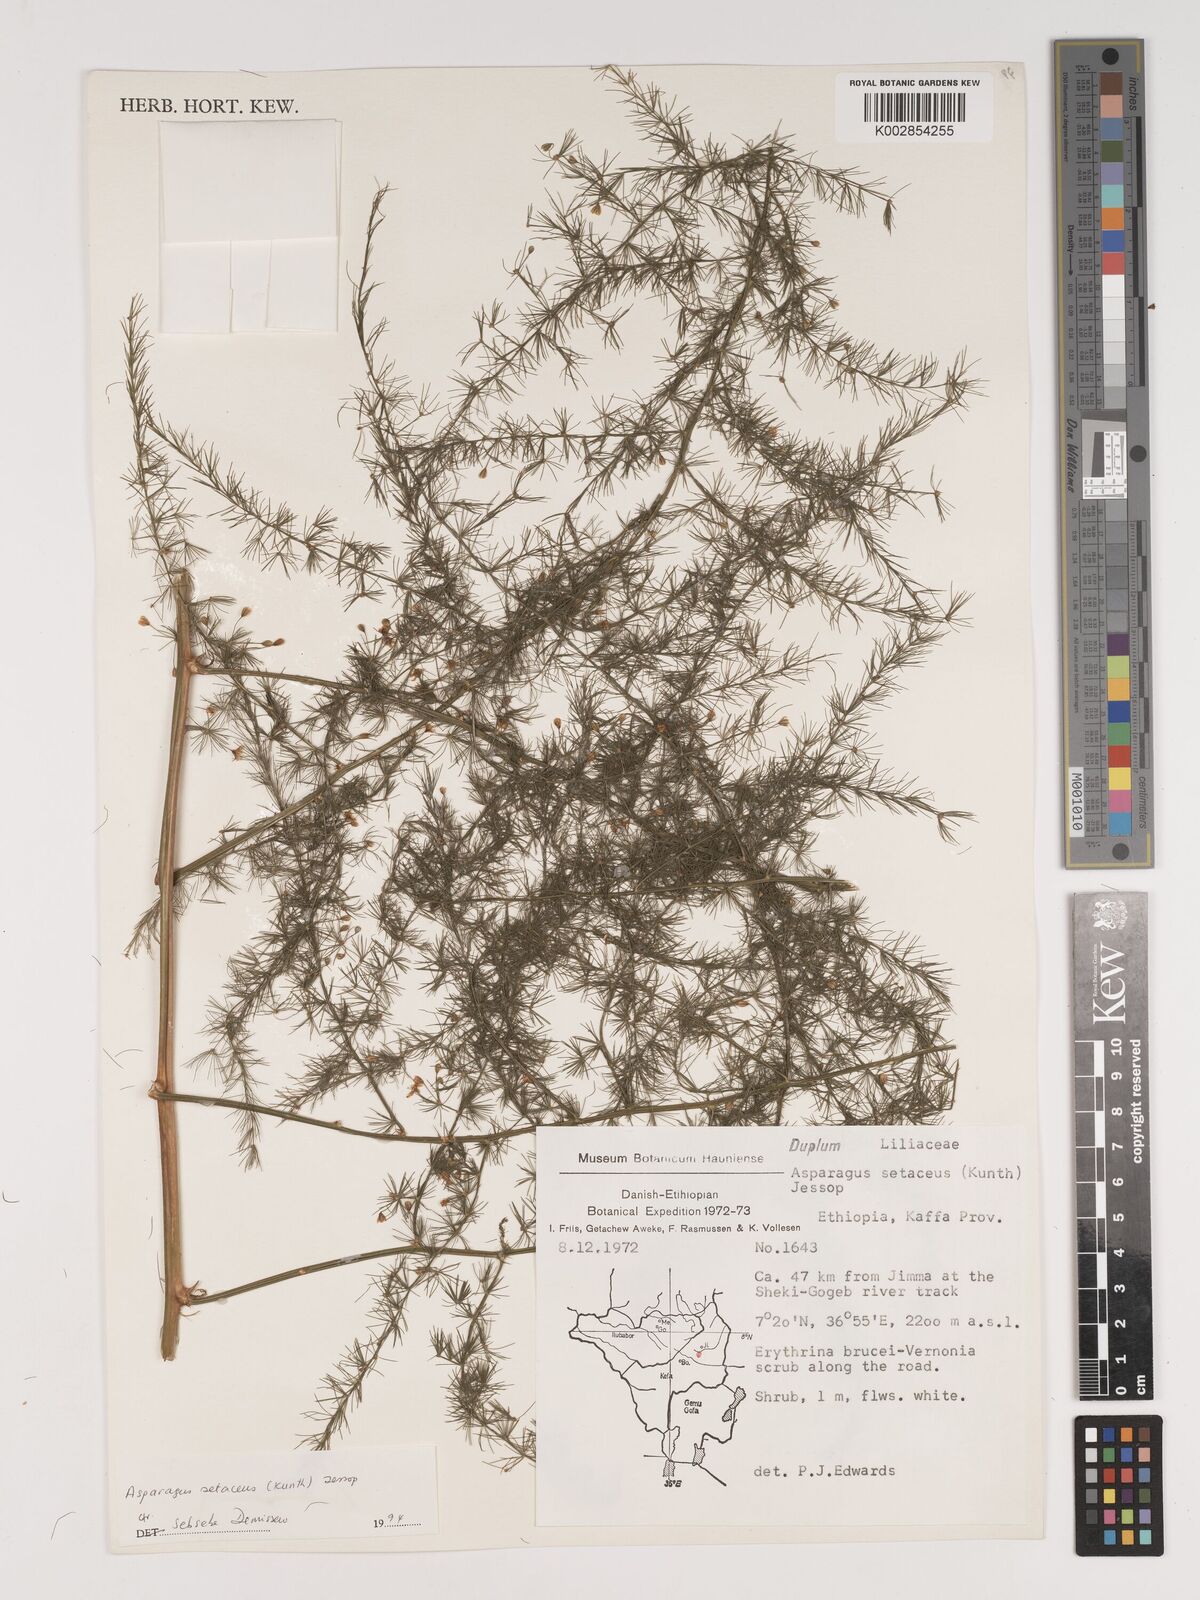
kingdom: Plantae
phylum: Tracheophyta
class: Liliopsida
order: Asparagales
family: Asparagaceae
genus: Asparagus
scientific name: Asparagus setaceus
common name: Common asparagus fern
